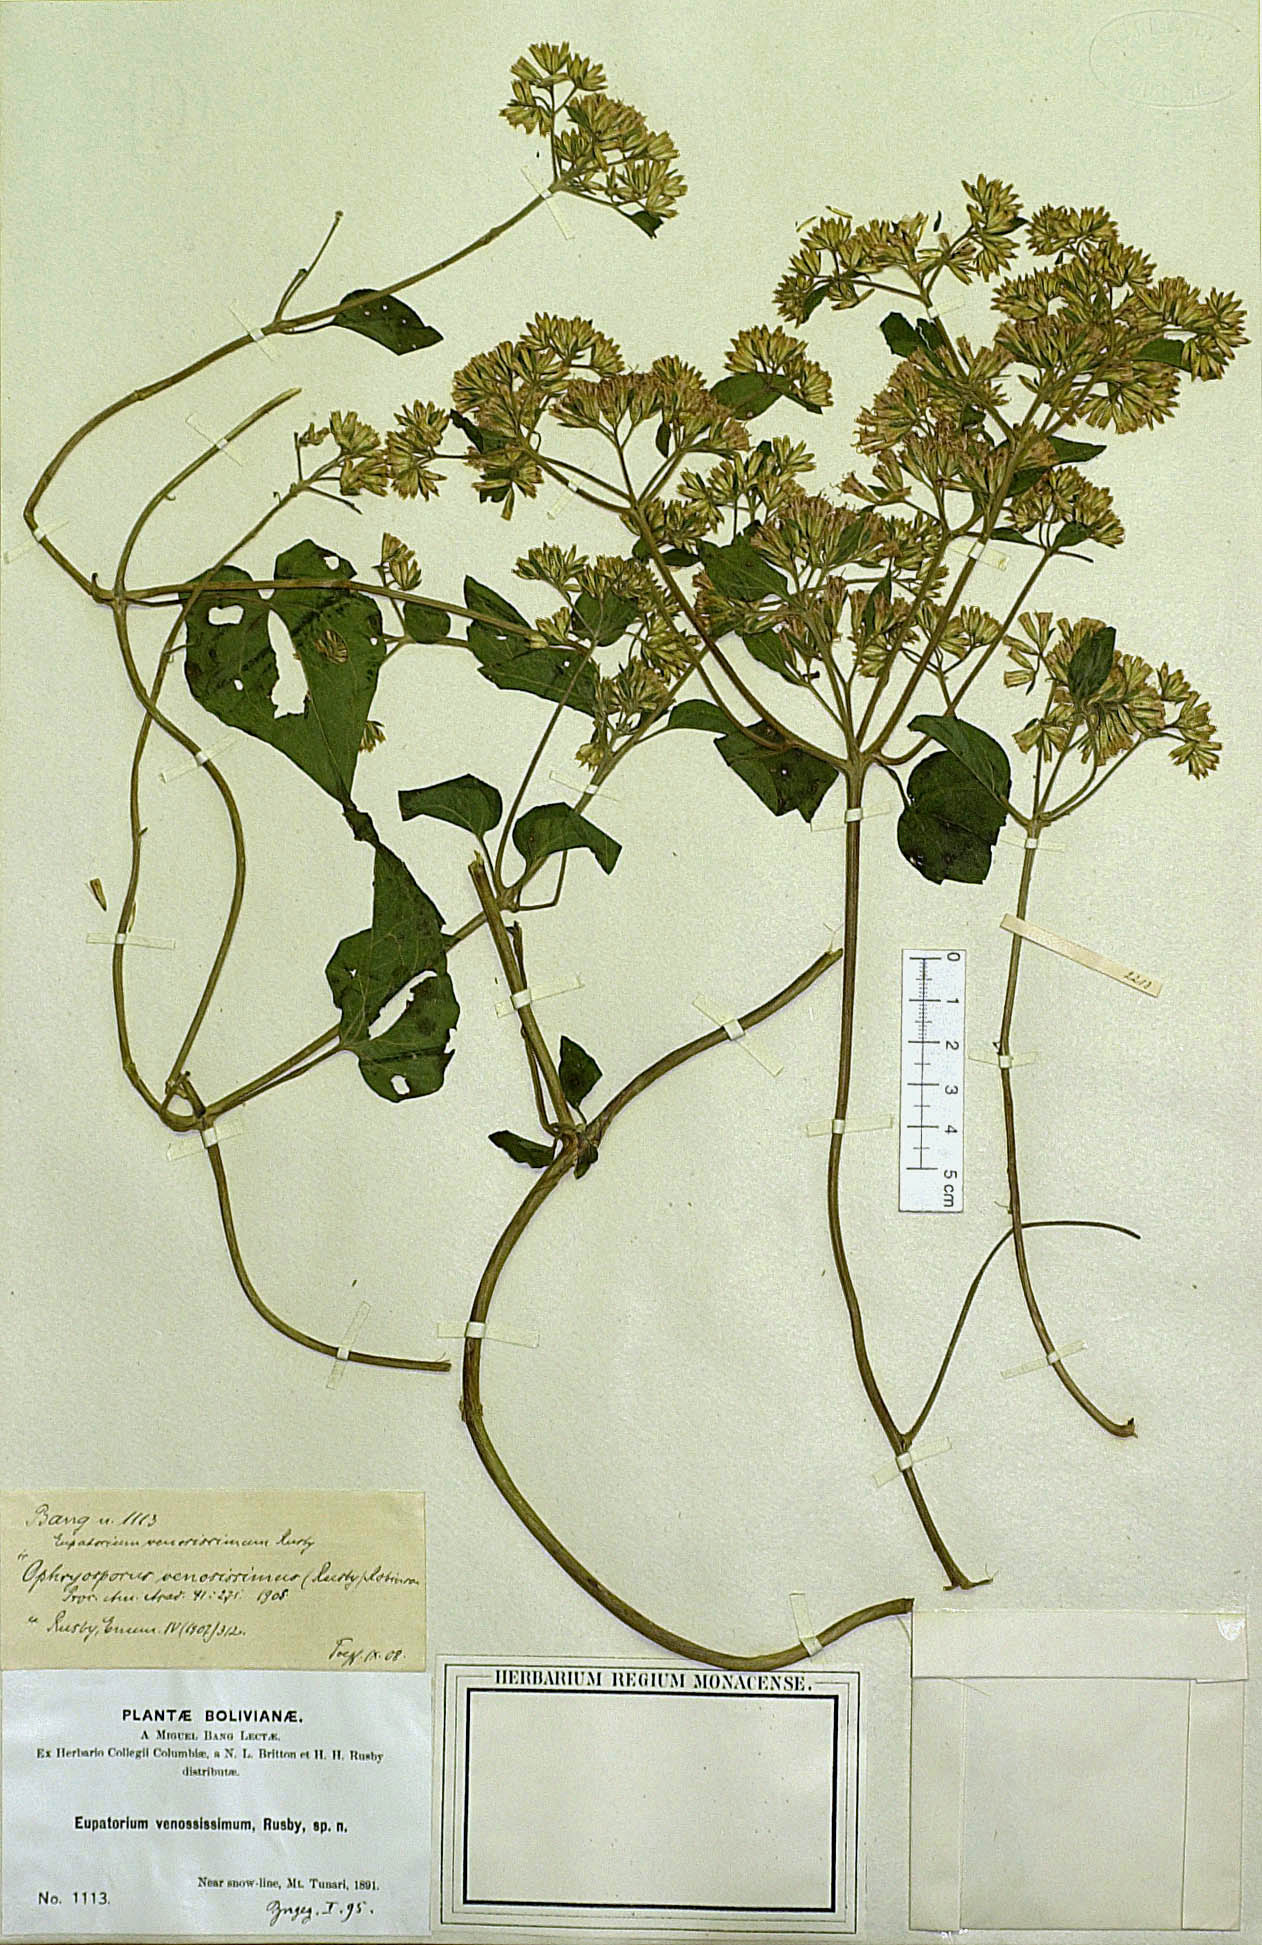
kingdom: Plantae
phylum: Tracheophyta
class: Magnoliopsida
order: Asterales
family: Asteraceae
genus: Ophryosporus
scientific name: Ophryosporus venosissimus
